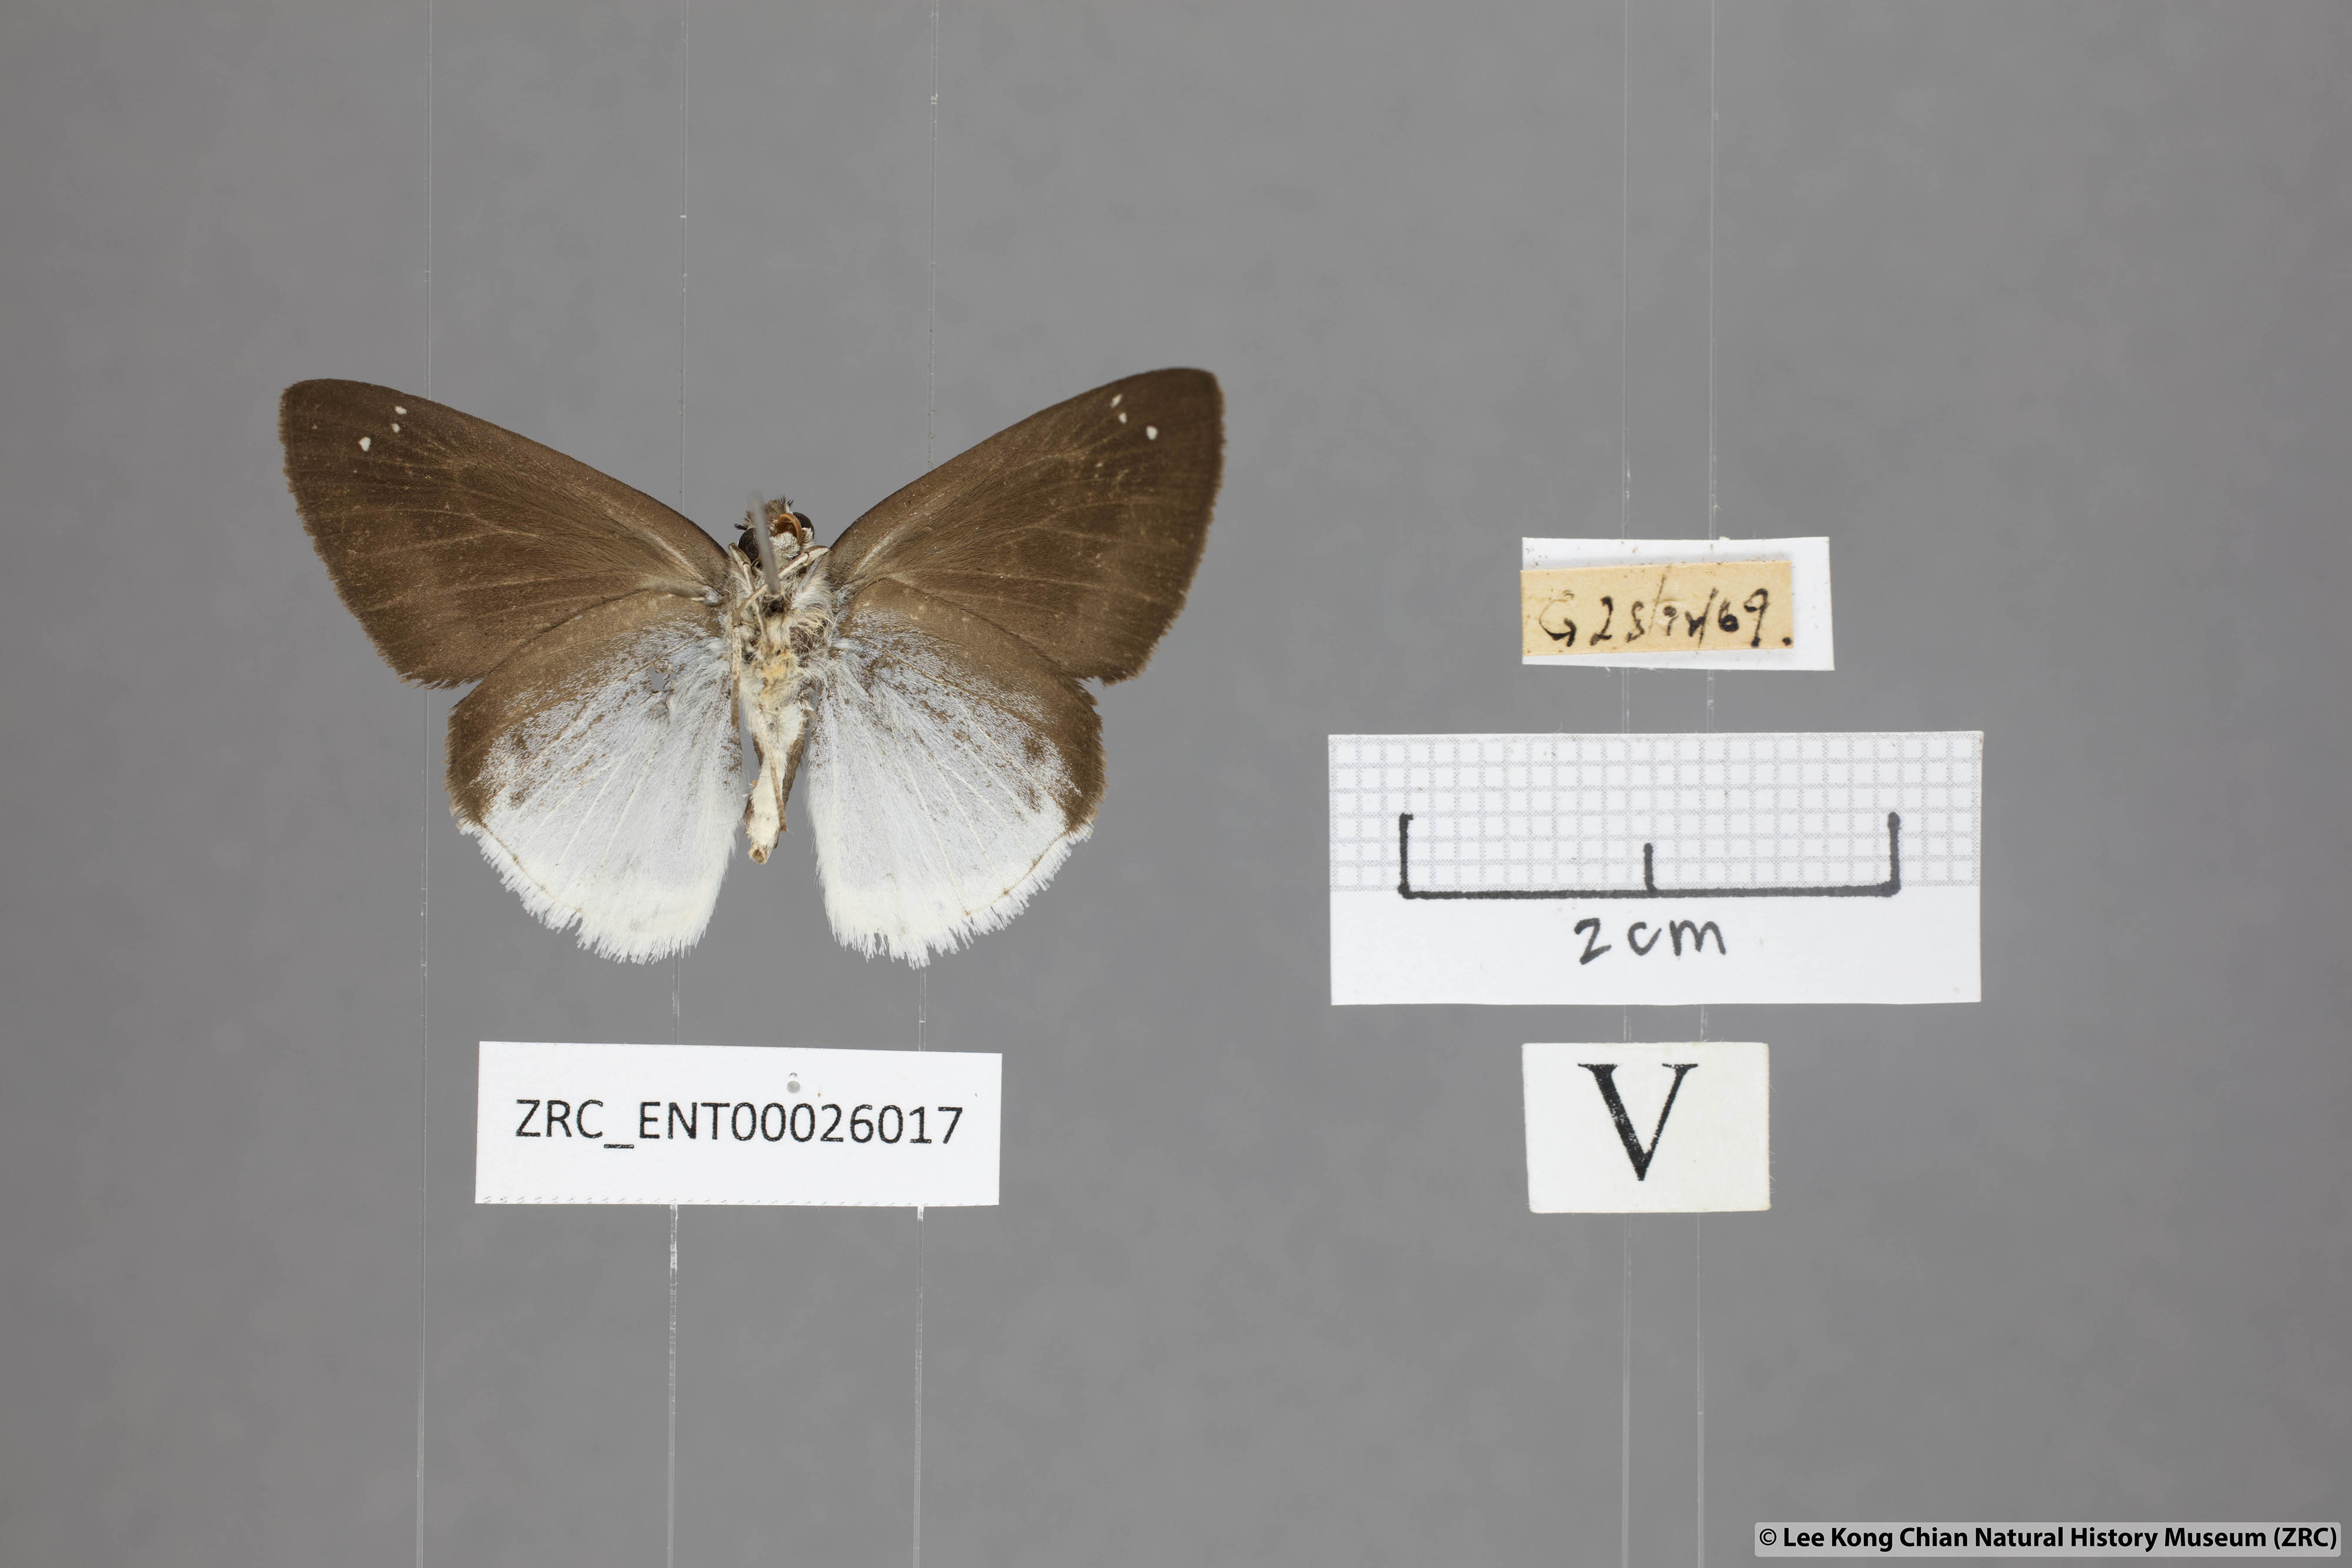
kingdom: Animalia
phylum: Arthropoda
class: Insecta
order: Lepidoptera
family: Hesperiidae
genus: Tagiades
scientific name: Tagiades lavata
